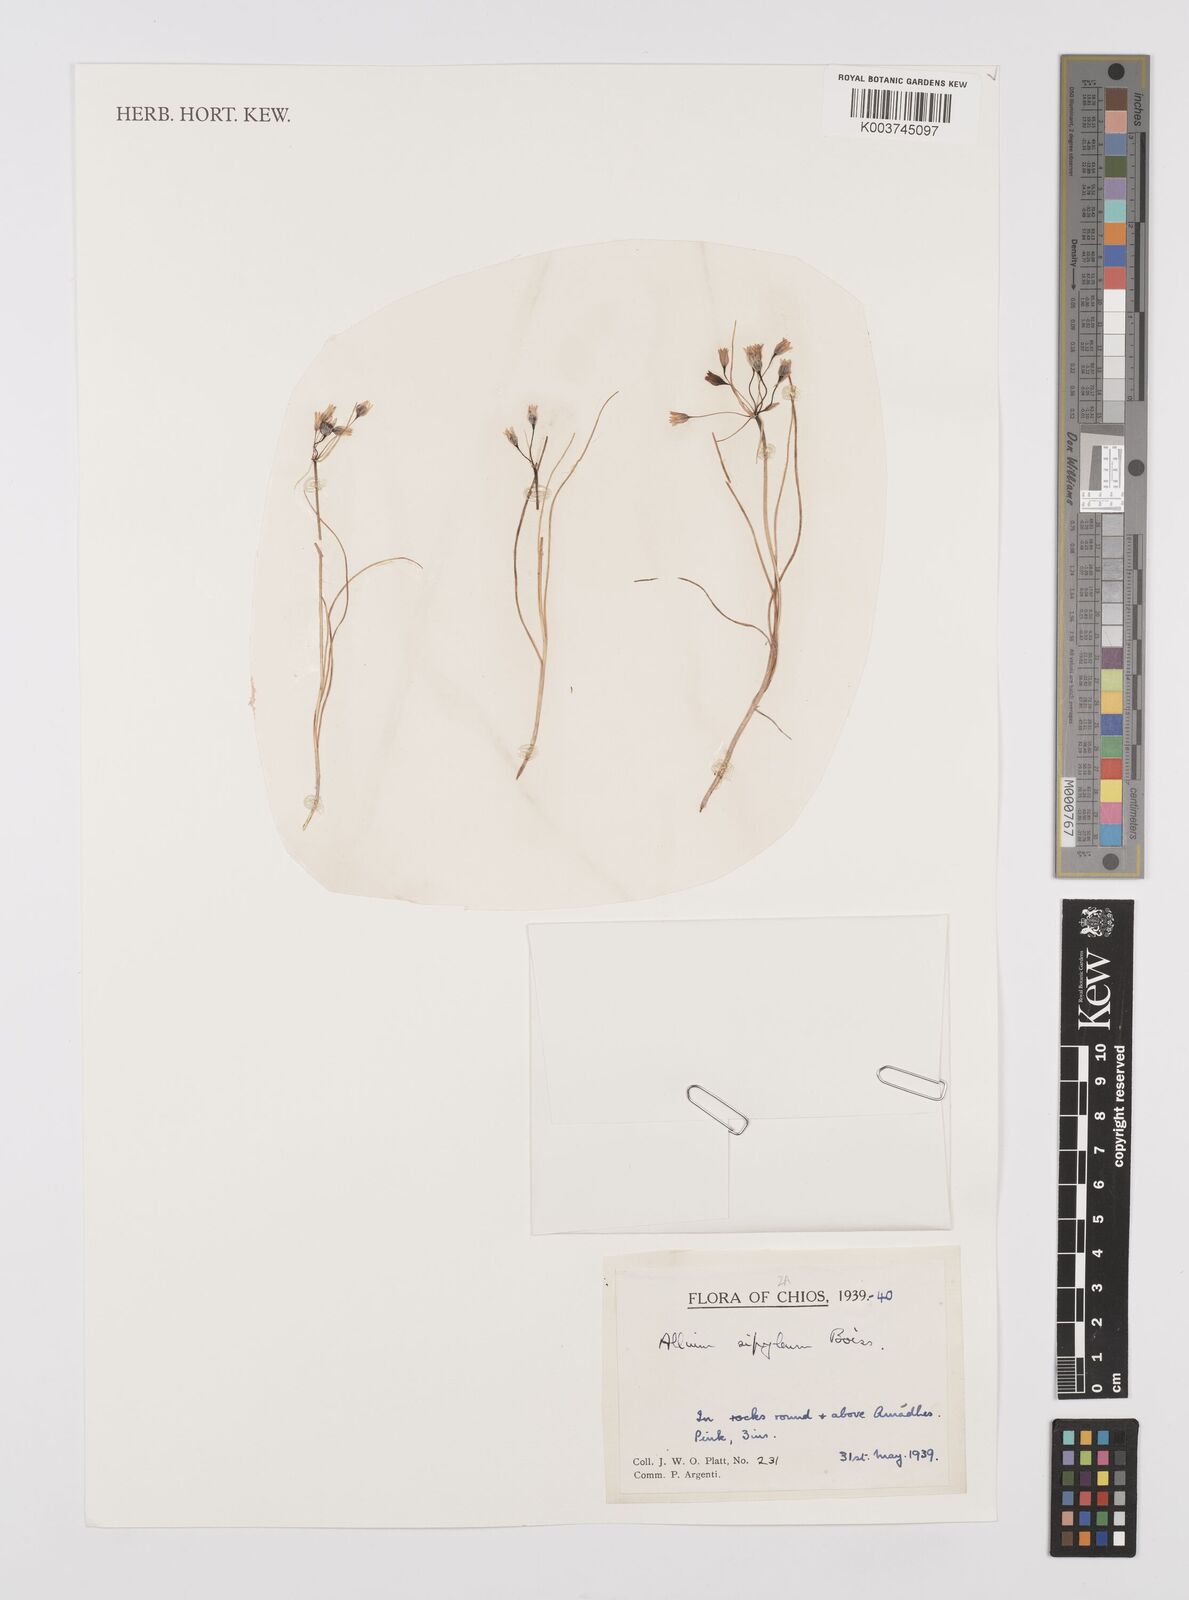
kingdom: Plantae
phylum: Tracheophyta
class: Liliopsida
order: Asparagales
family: Amaryllidaceae
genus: Allium
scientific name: Allium sipyleum
